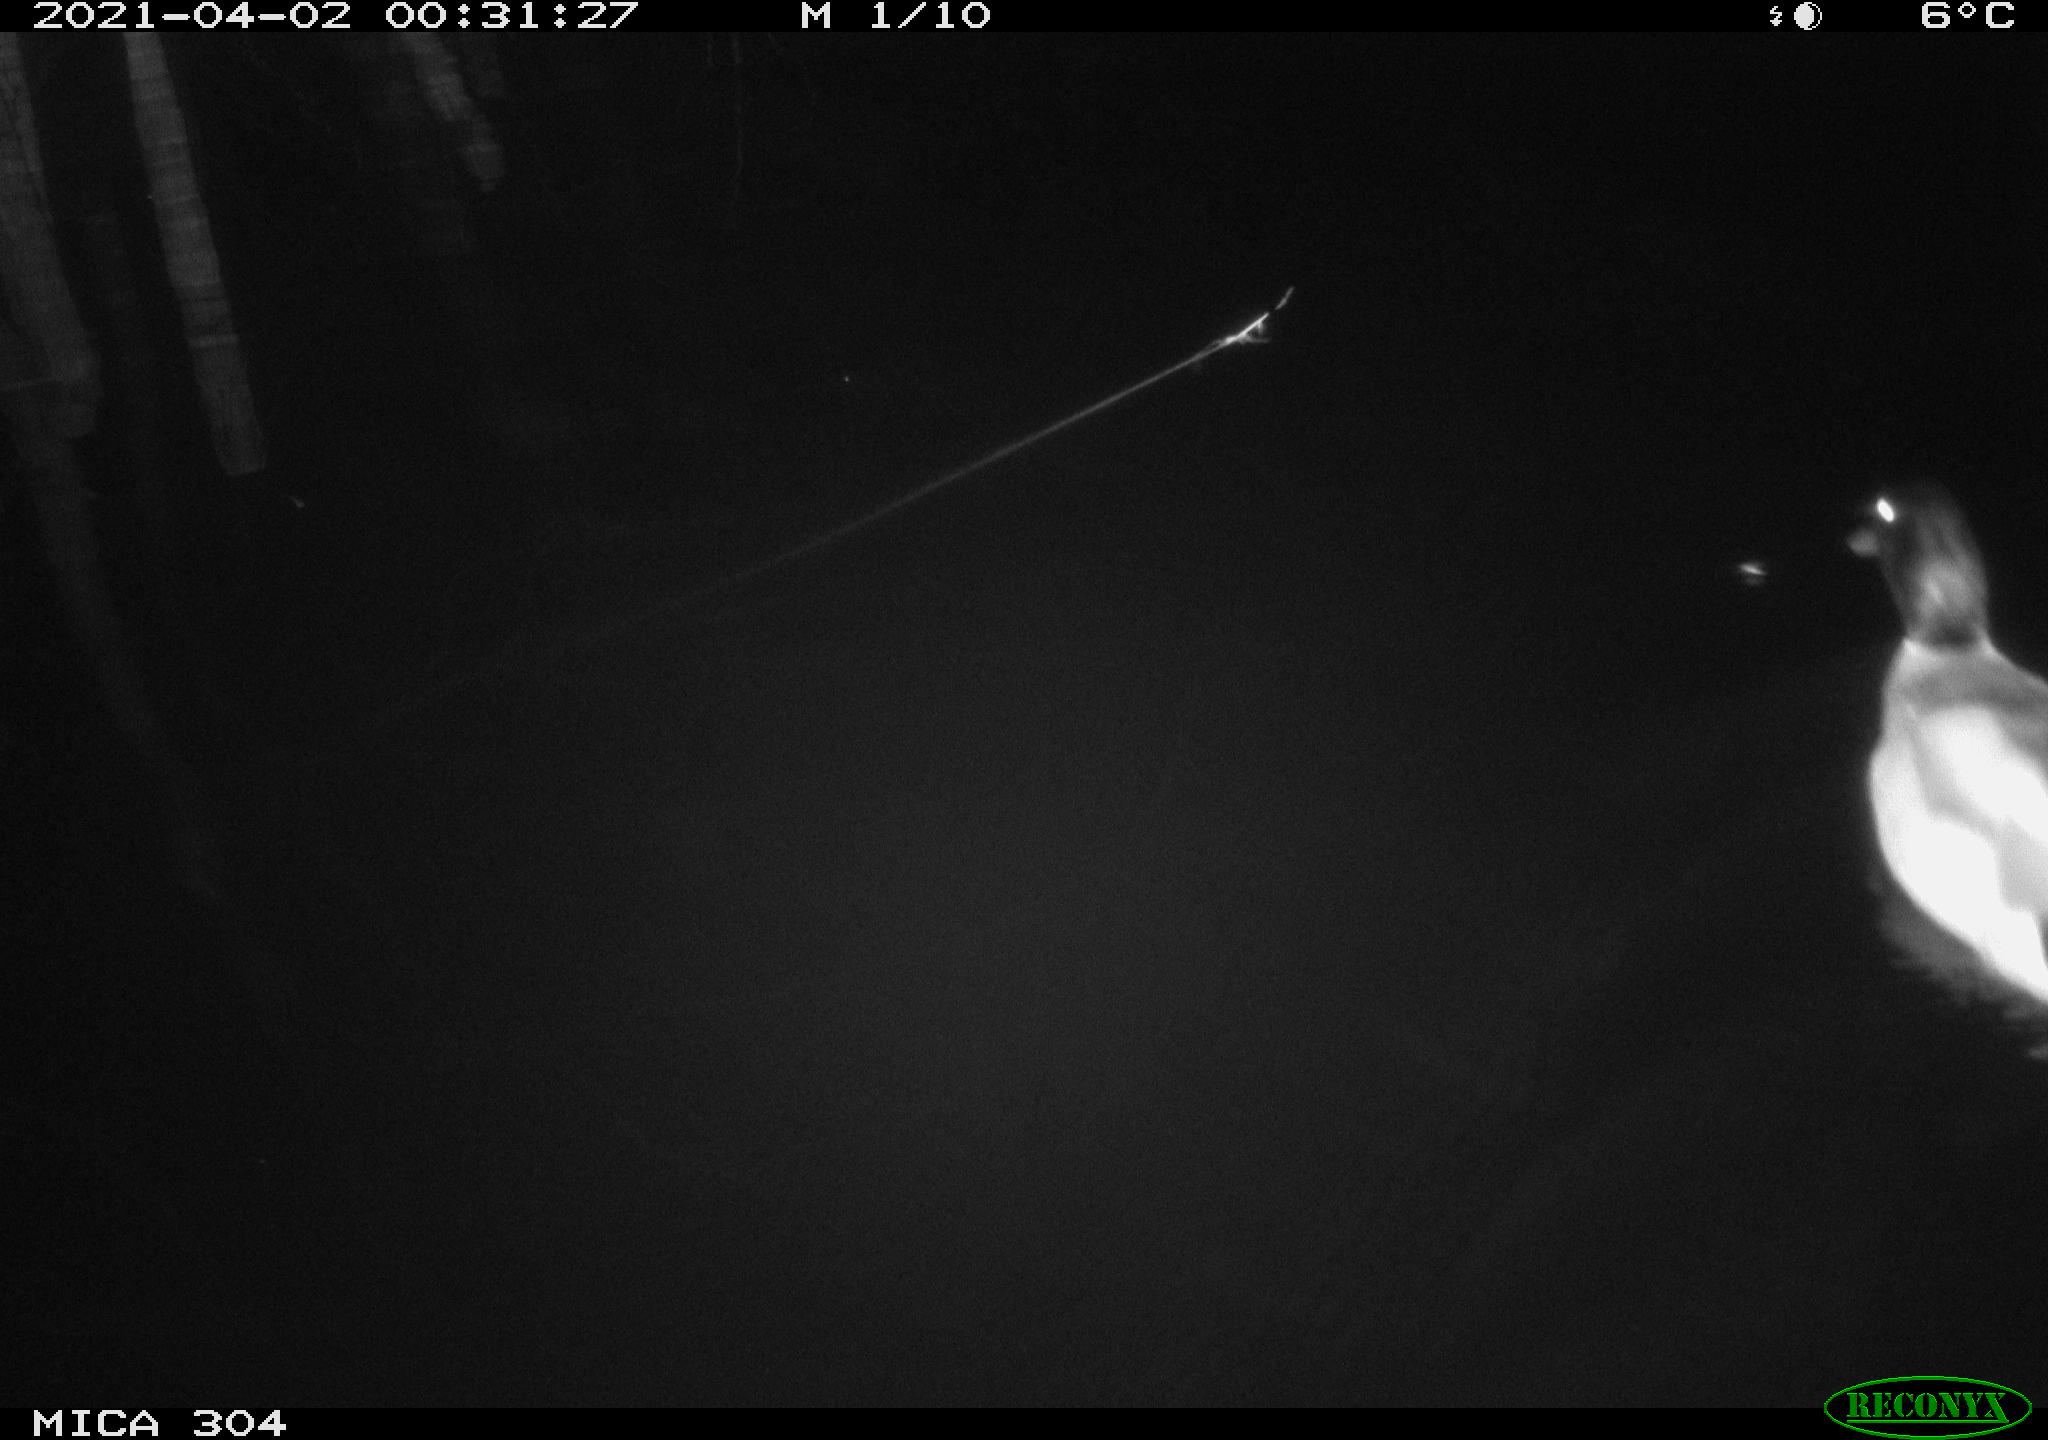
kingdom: Animalia
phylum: Chordata
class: Aves
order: Anseriformes
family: Anatidae
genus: Anas
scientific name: Anas
